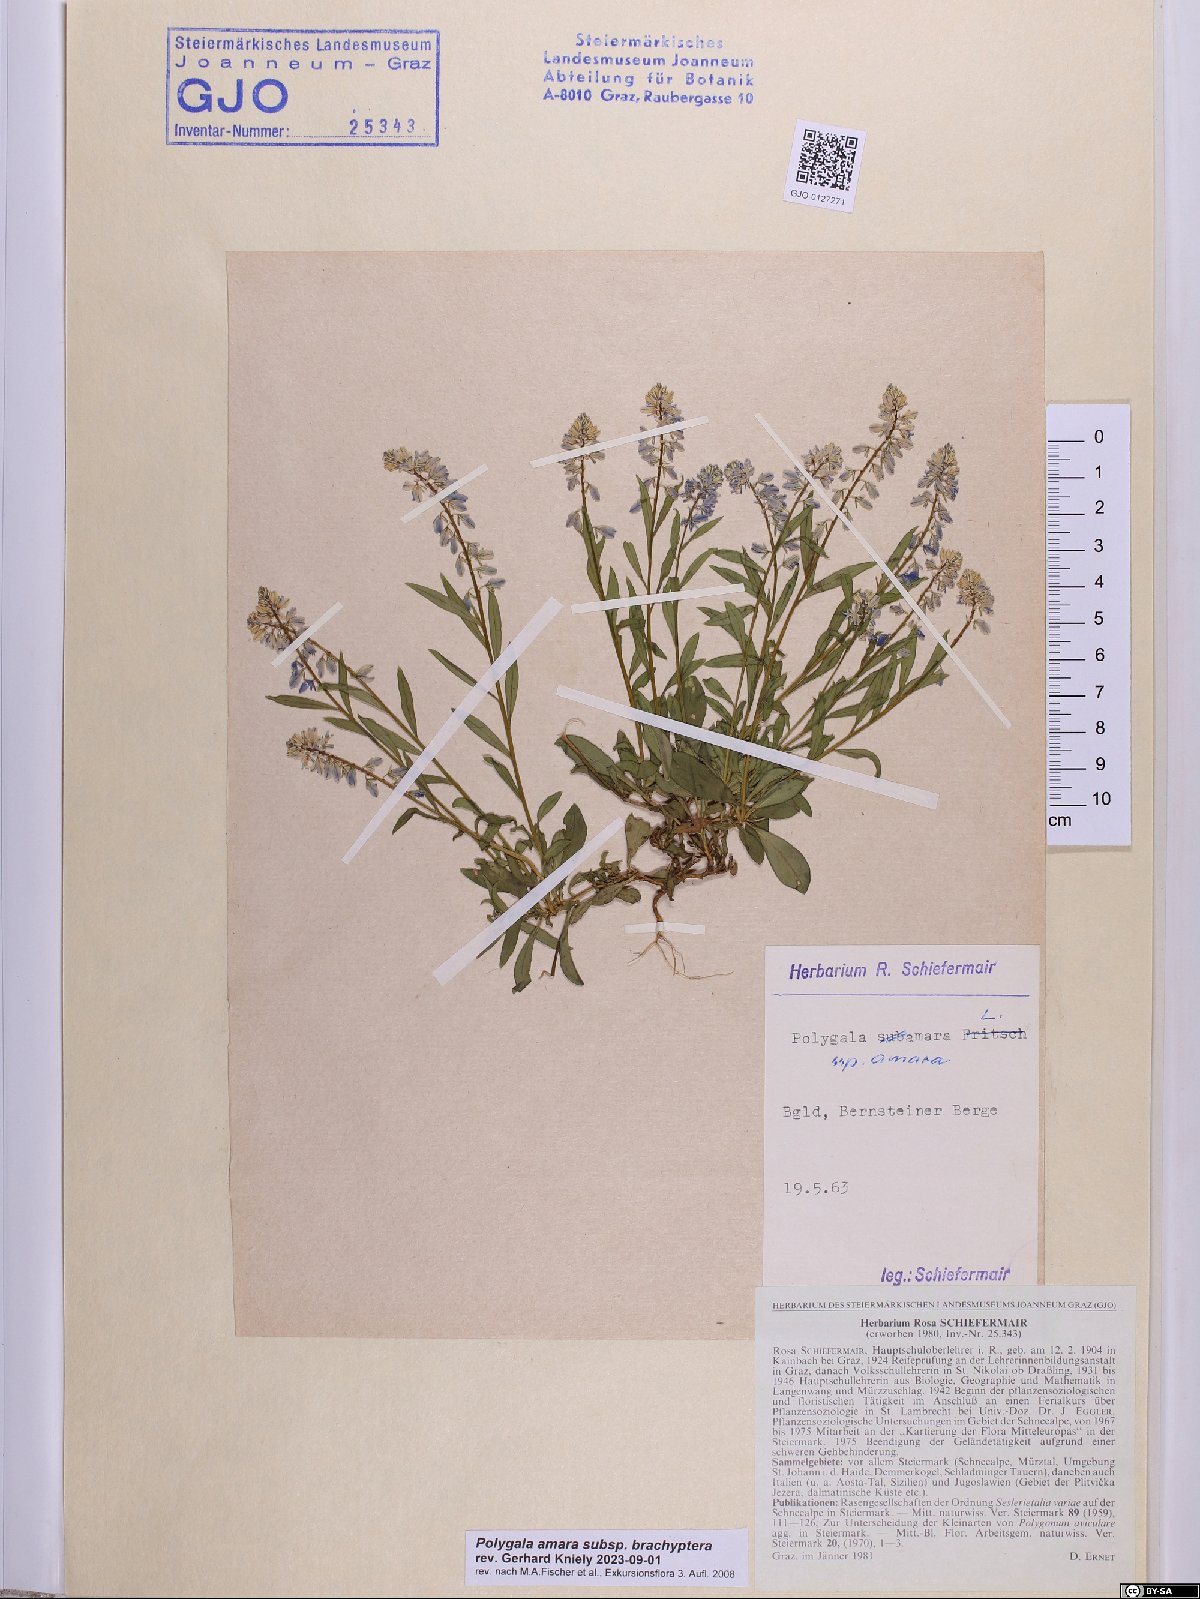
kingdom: Plantae
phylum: Tracheophyta
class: Magnoliopsida
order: Fabales
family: Polygalaceae
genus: Polygala
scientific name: Polygala amara
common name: Milkwort
